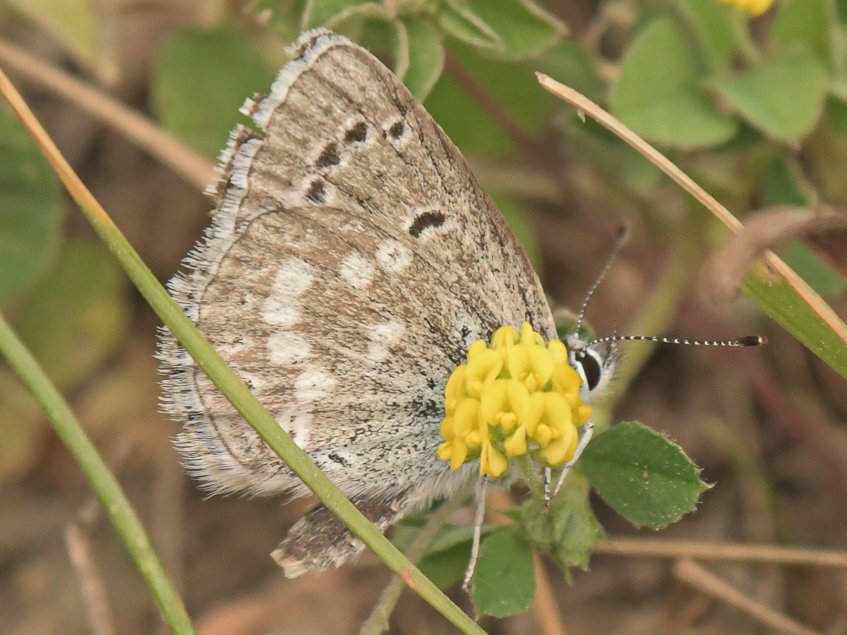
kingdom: Animalia
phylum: Arthropoda
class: Insecta
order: Lepidoptera
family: Lycaenidae
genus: Icaricia
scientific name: Icaricia icarioides
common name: Boisduval's Blue
